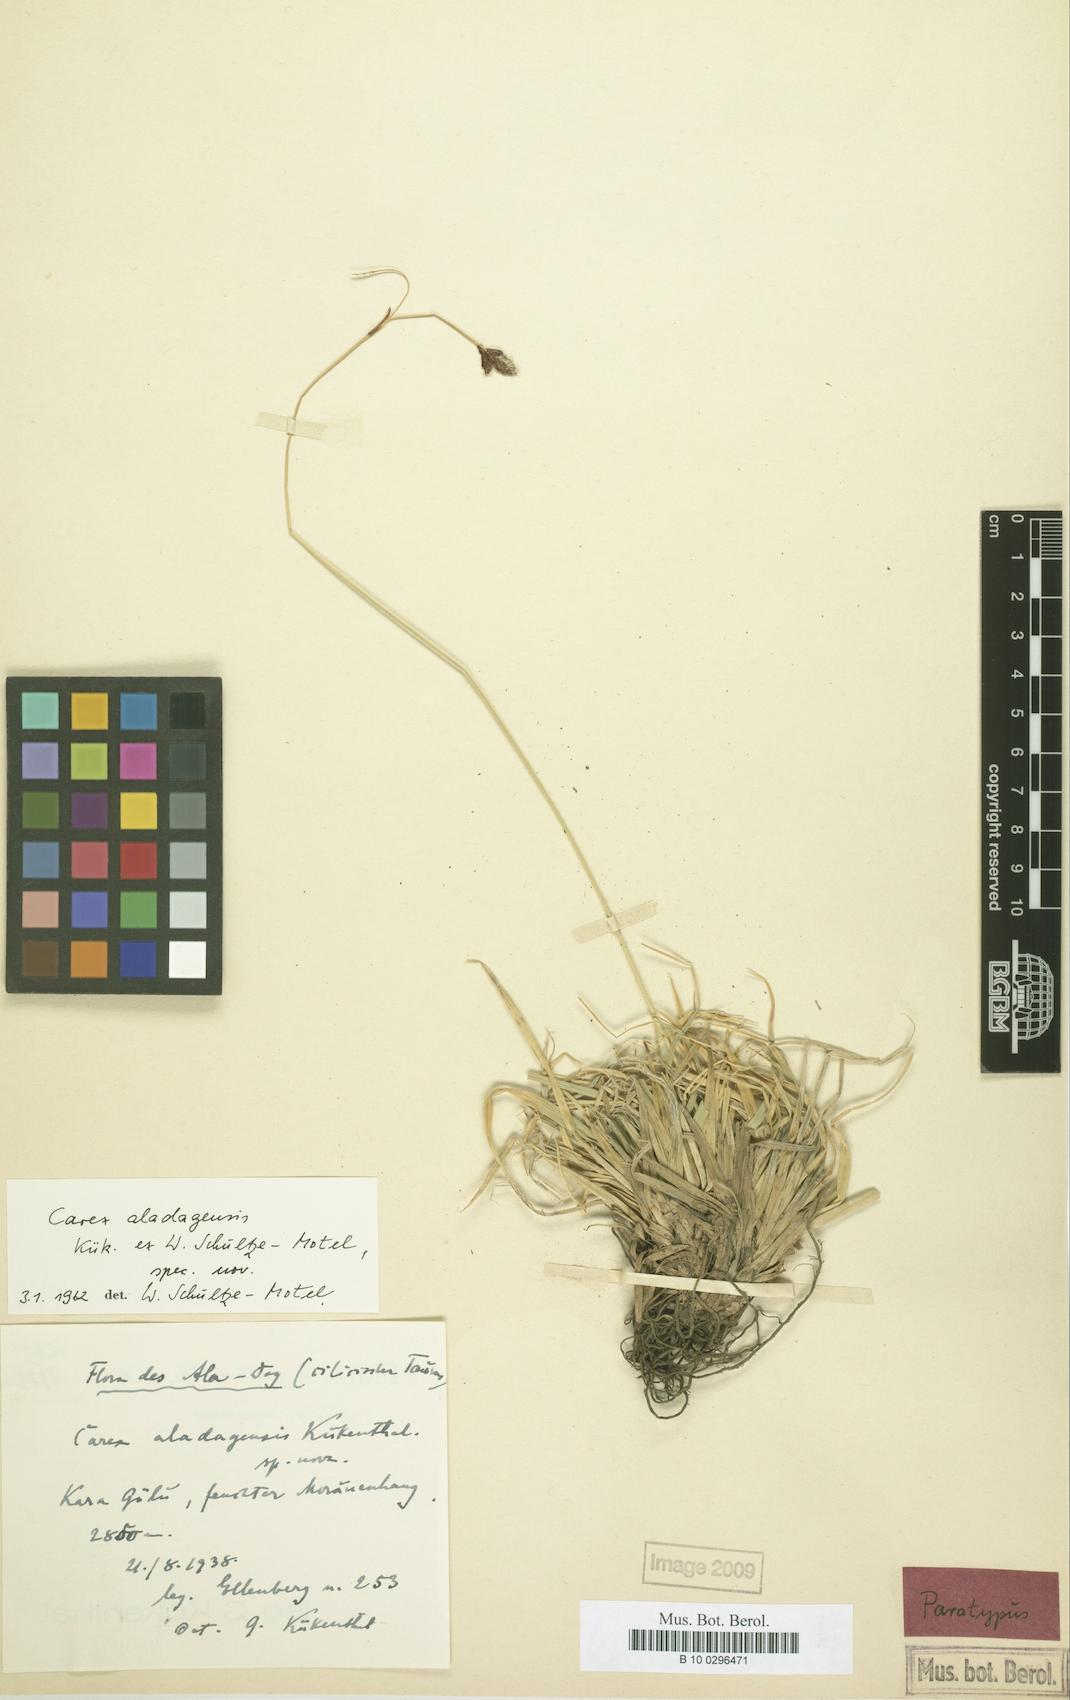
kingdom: Plantae
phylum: Tracheophyta
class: Liliopsida
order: Poales
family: Cyperaceae
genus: Carex
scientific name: Carex aladagensis
